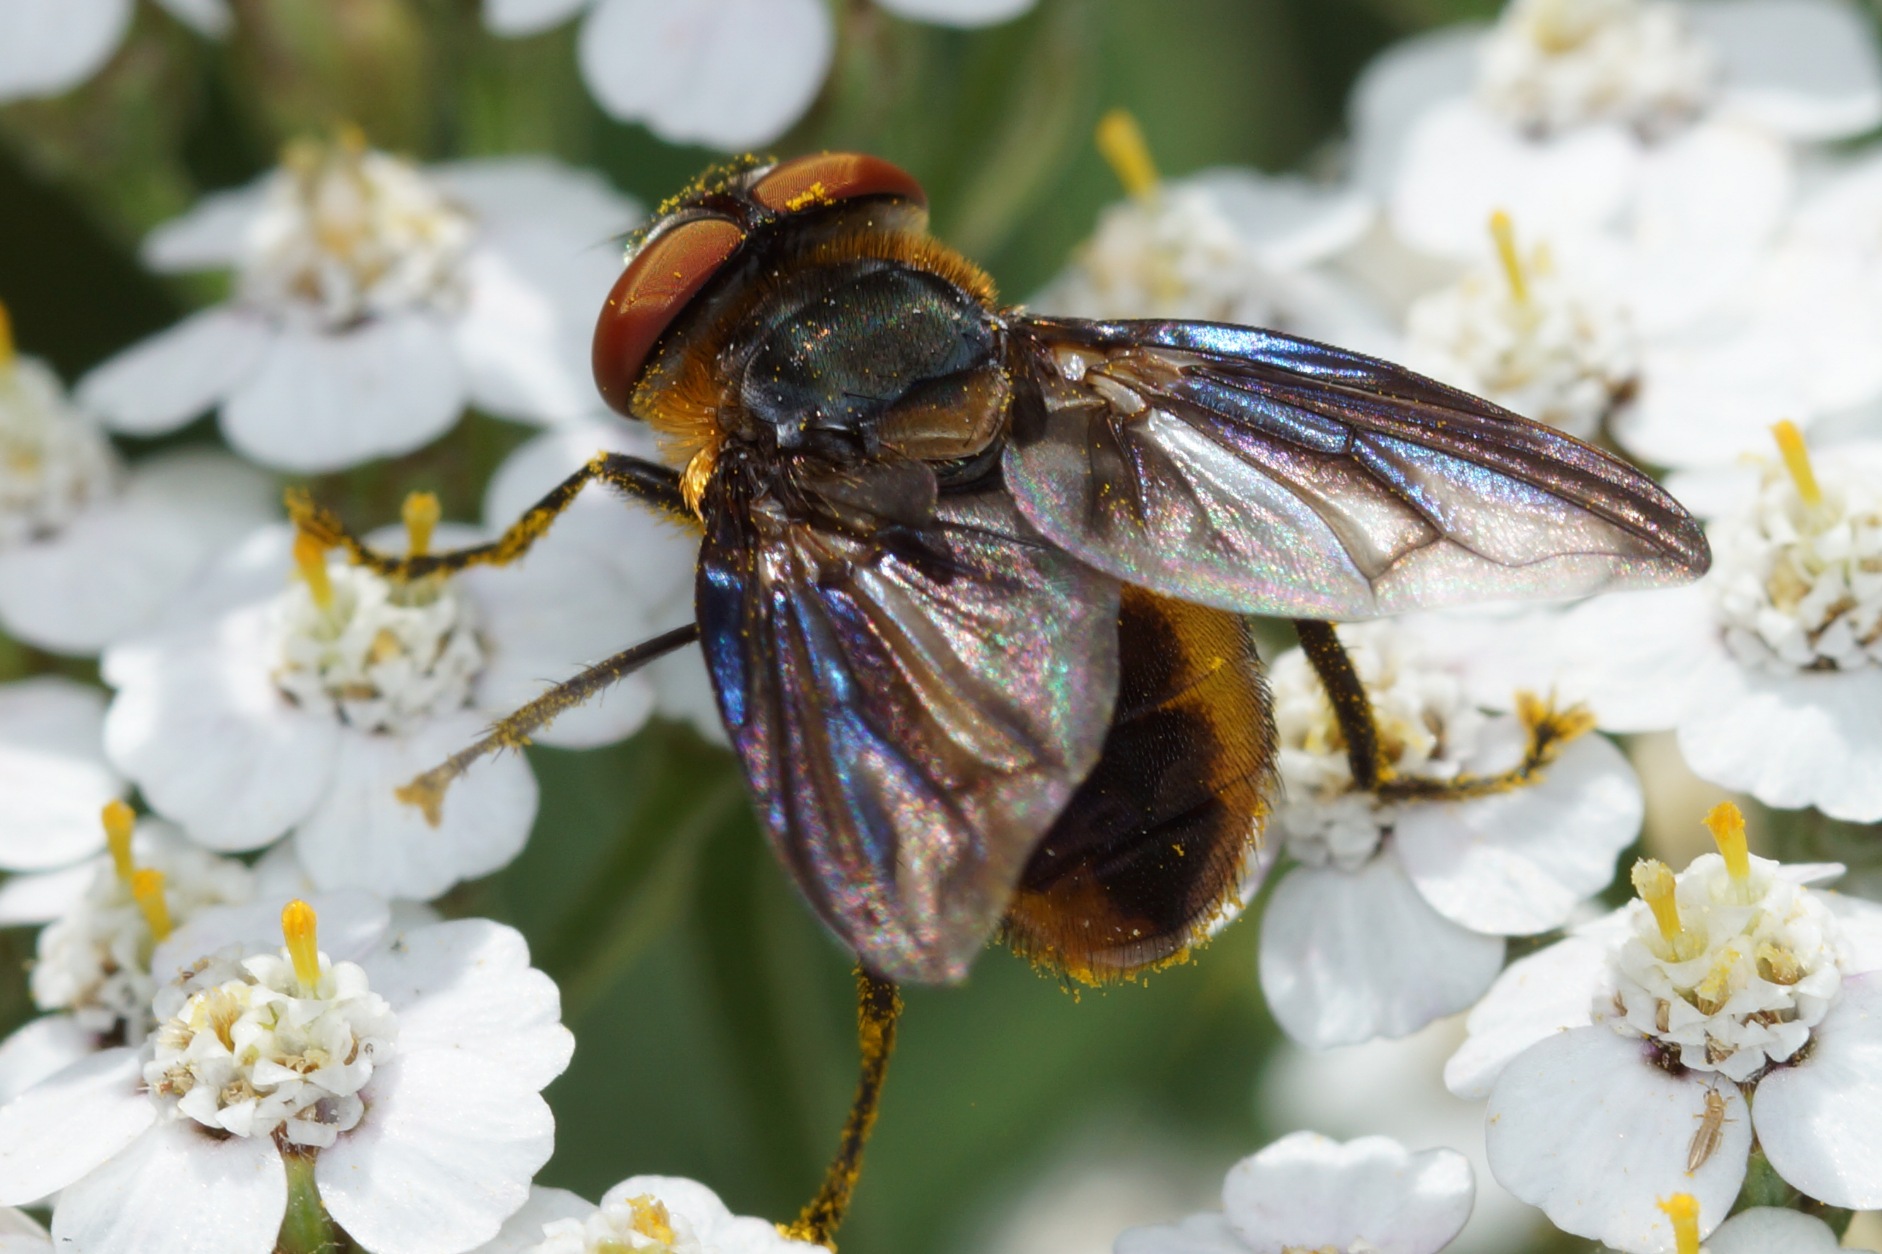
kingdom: Animalia
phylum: Arthropoda
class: Insecta
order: Diptera
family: Tachinidae
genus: Phasia
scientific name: Phasia hemiptera
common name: Blåvinget pragtsnylteflue
